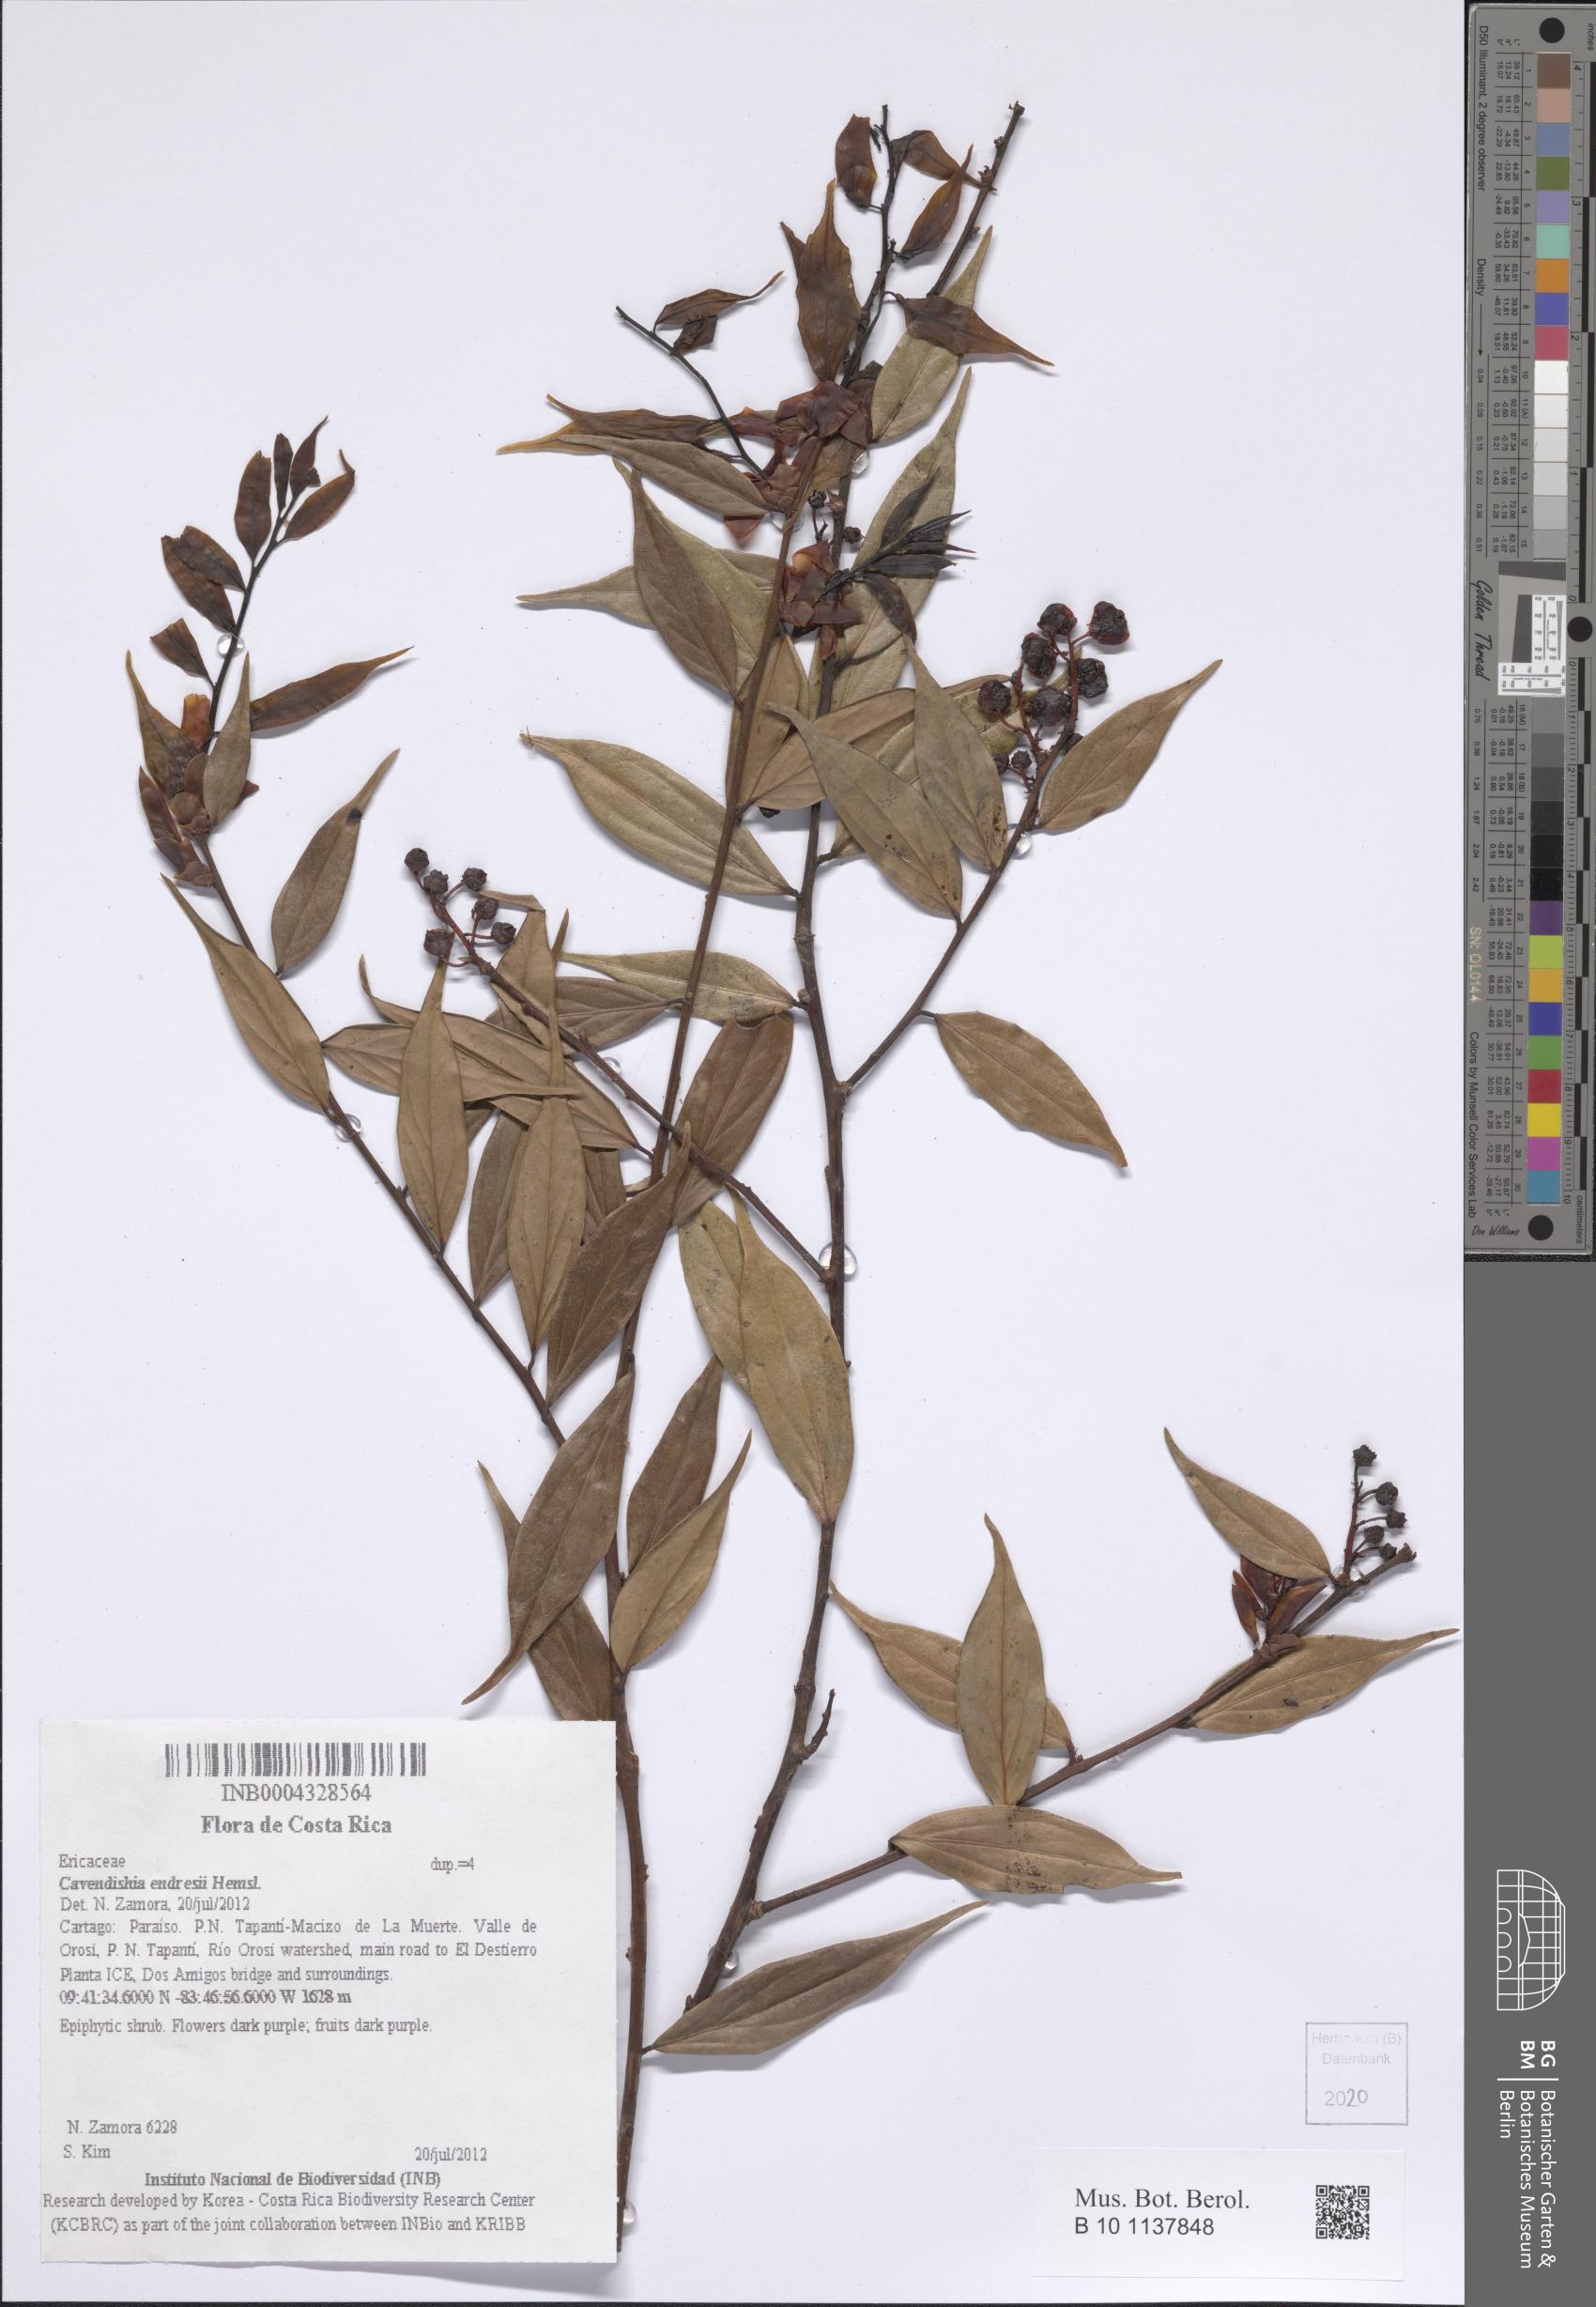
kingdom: Plantae
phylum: Tracheophyta
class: Magnoliopsida
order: Ericales
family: Ericaceae
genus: Cavendishia
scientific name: Cavendishia endresii
